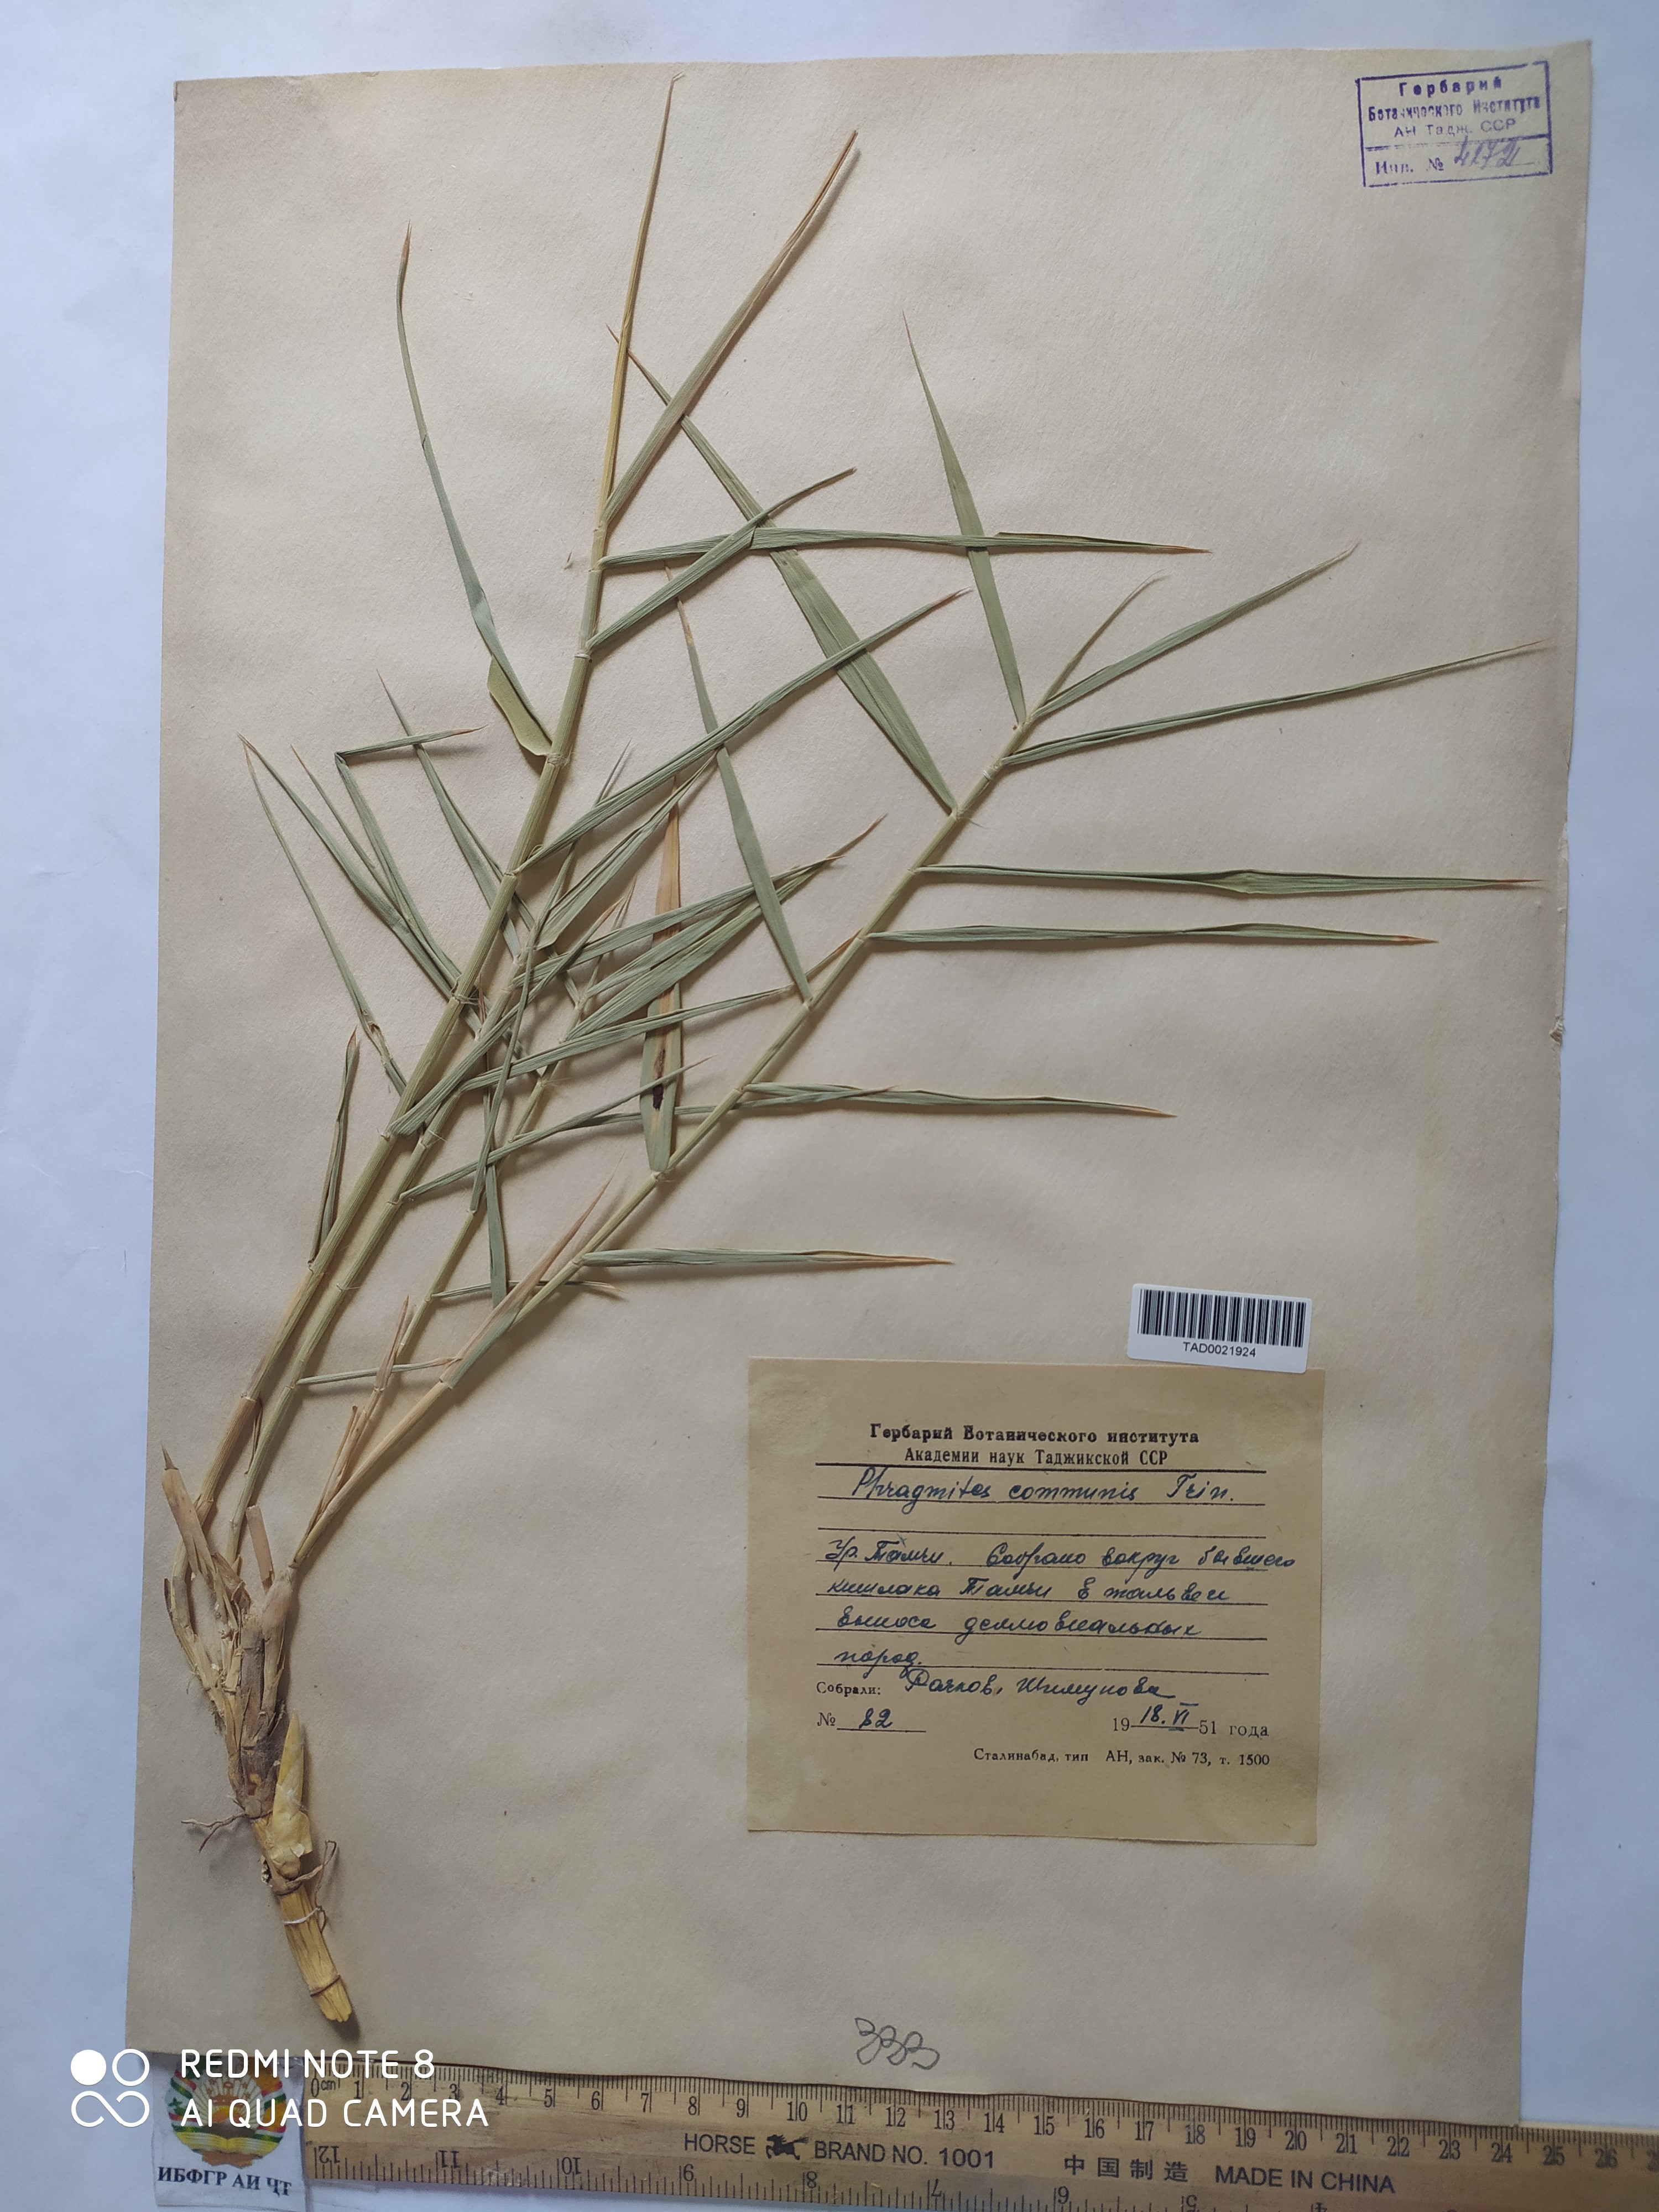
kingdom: Plantae
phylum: Tracheophyta
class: Liliopsida
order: Poales
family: Poaceae
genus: Phragmites
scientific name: Phragmites australis
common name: Common reed
